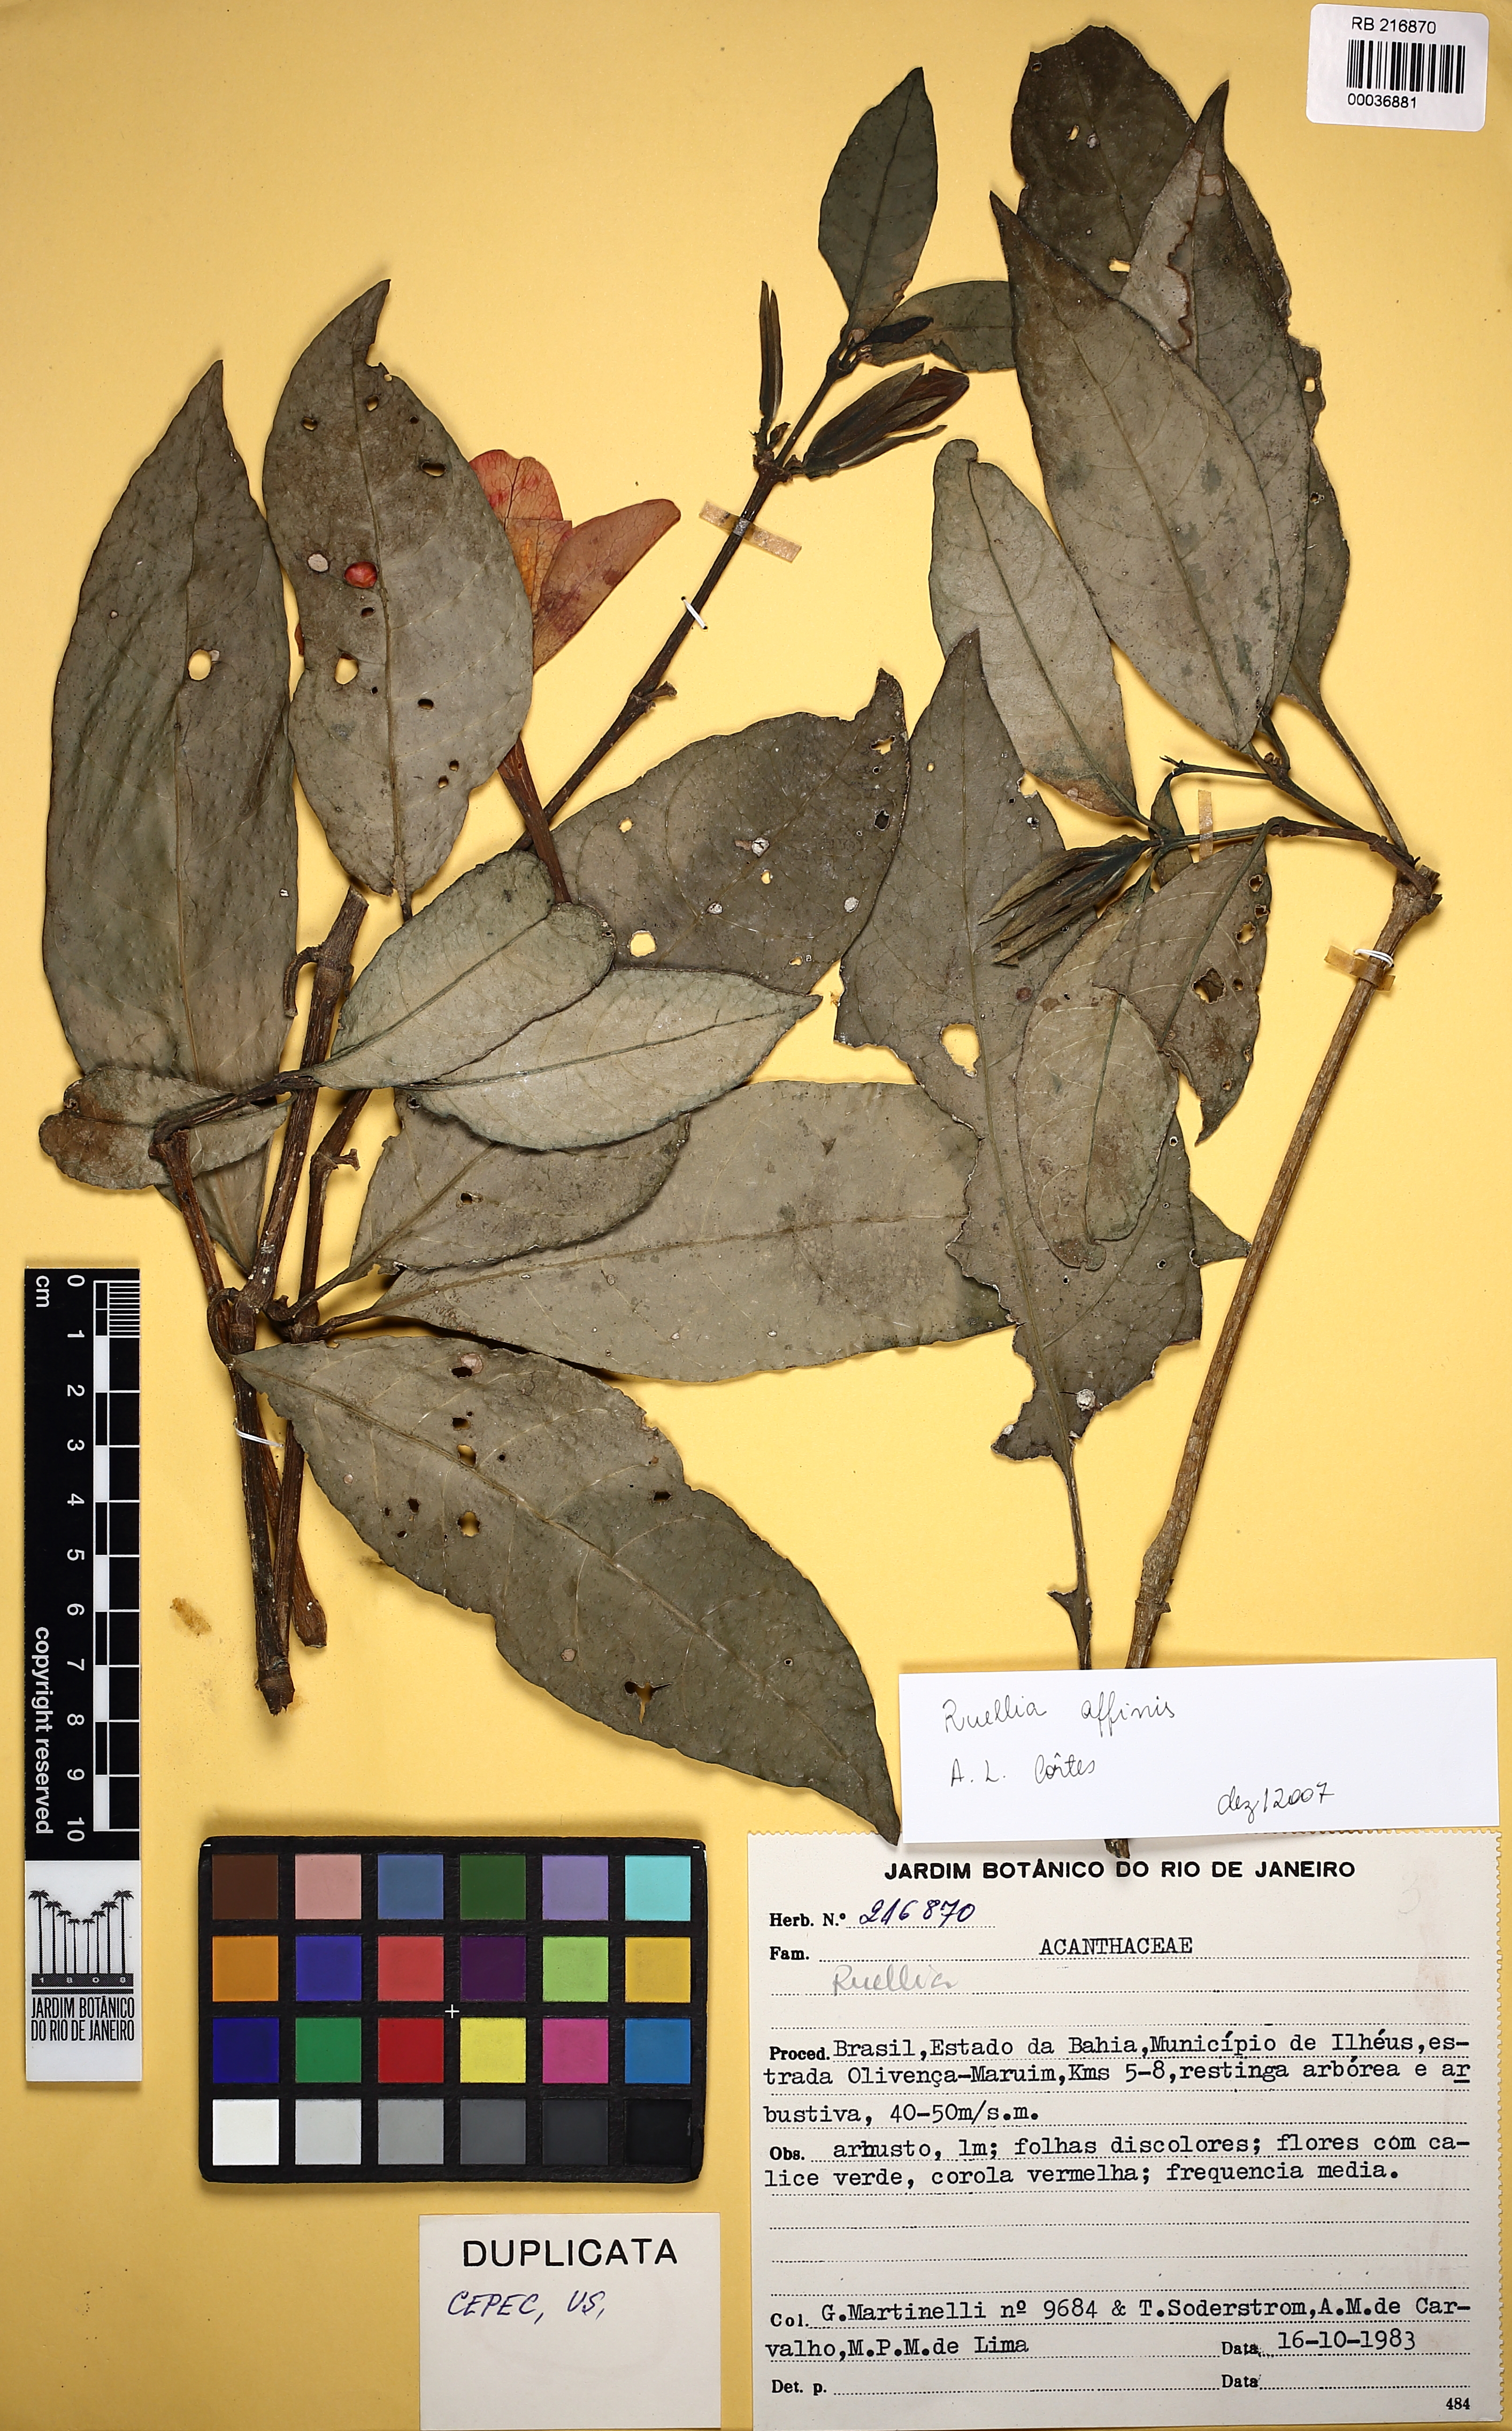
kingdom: Plantae
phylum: Tracheophyta
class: Magnoliopsida
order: Lamiales
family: Acanthaceae
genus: Ruellia
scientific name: Ruellia affinis
